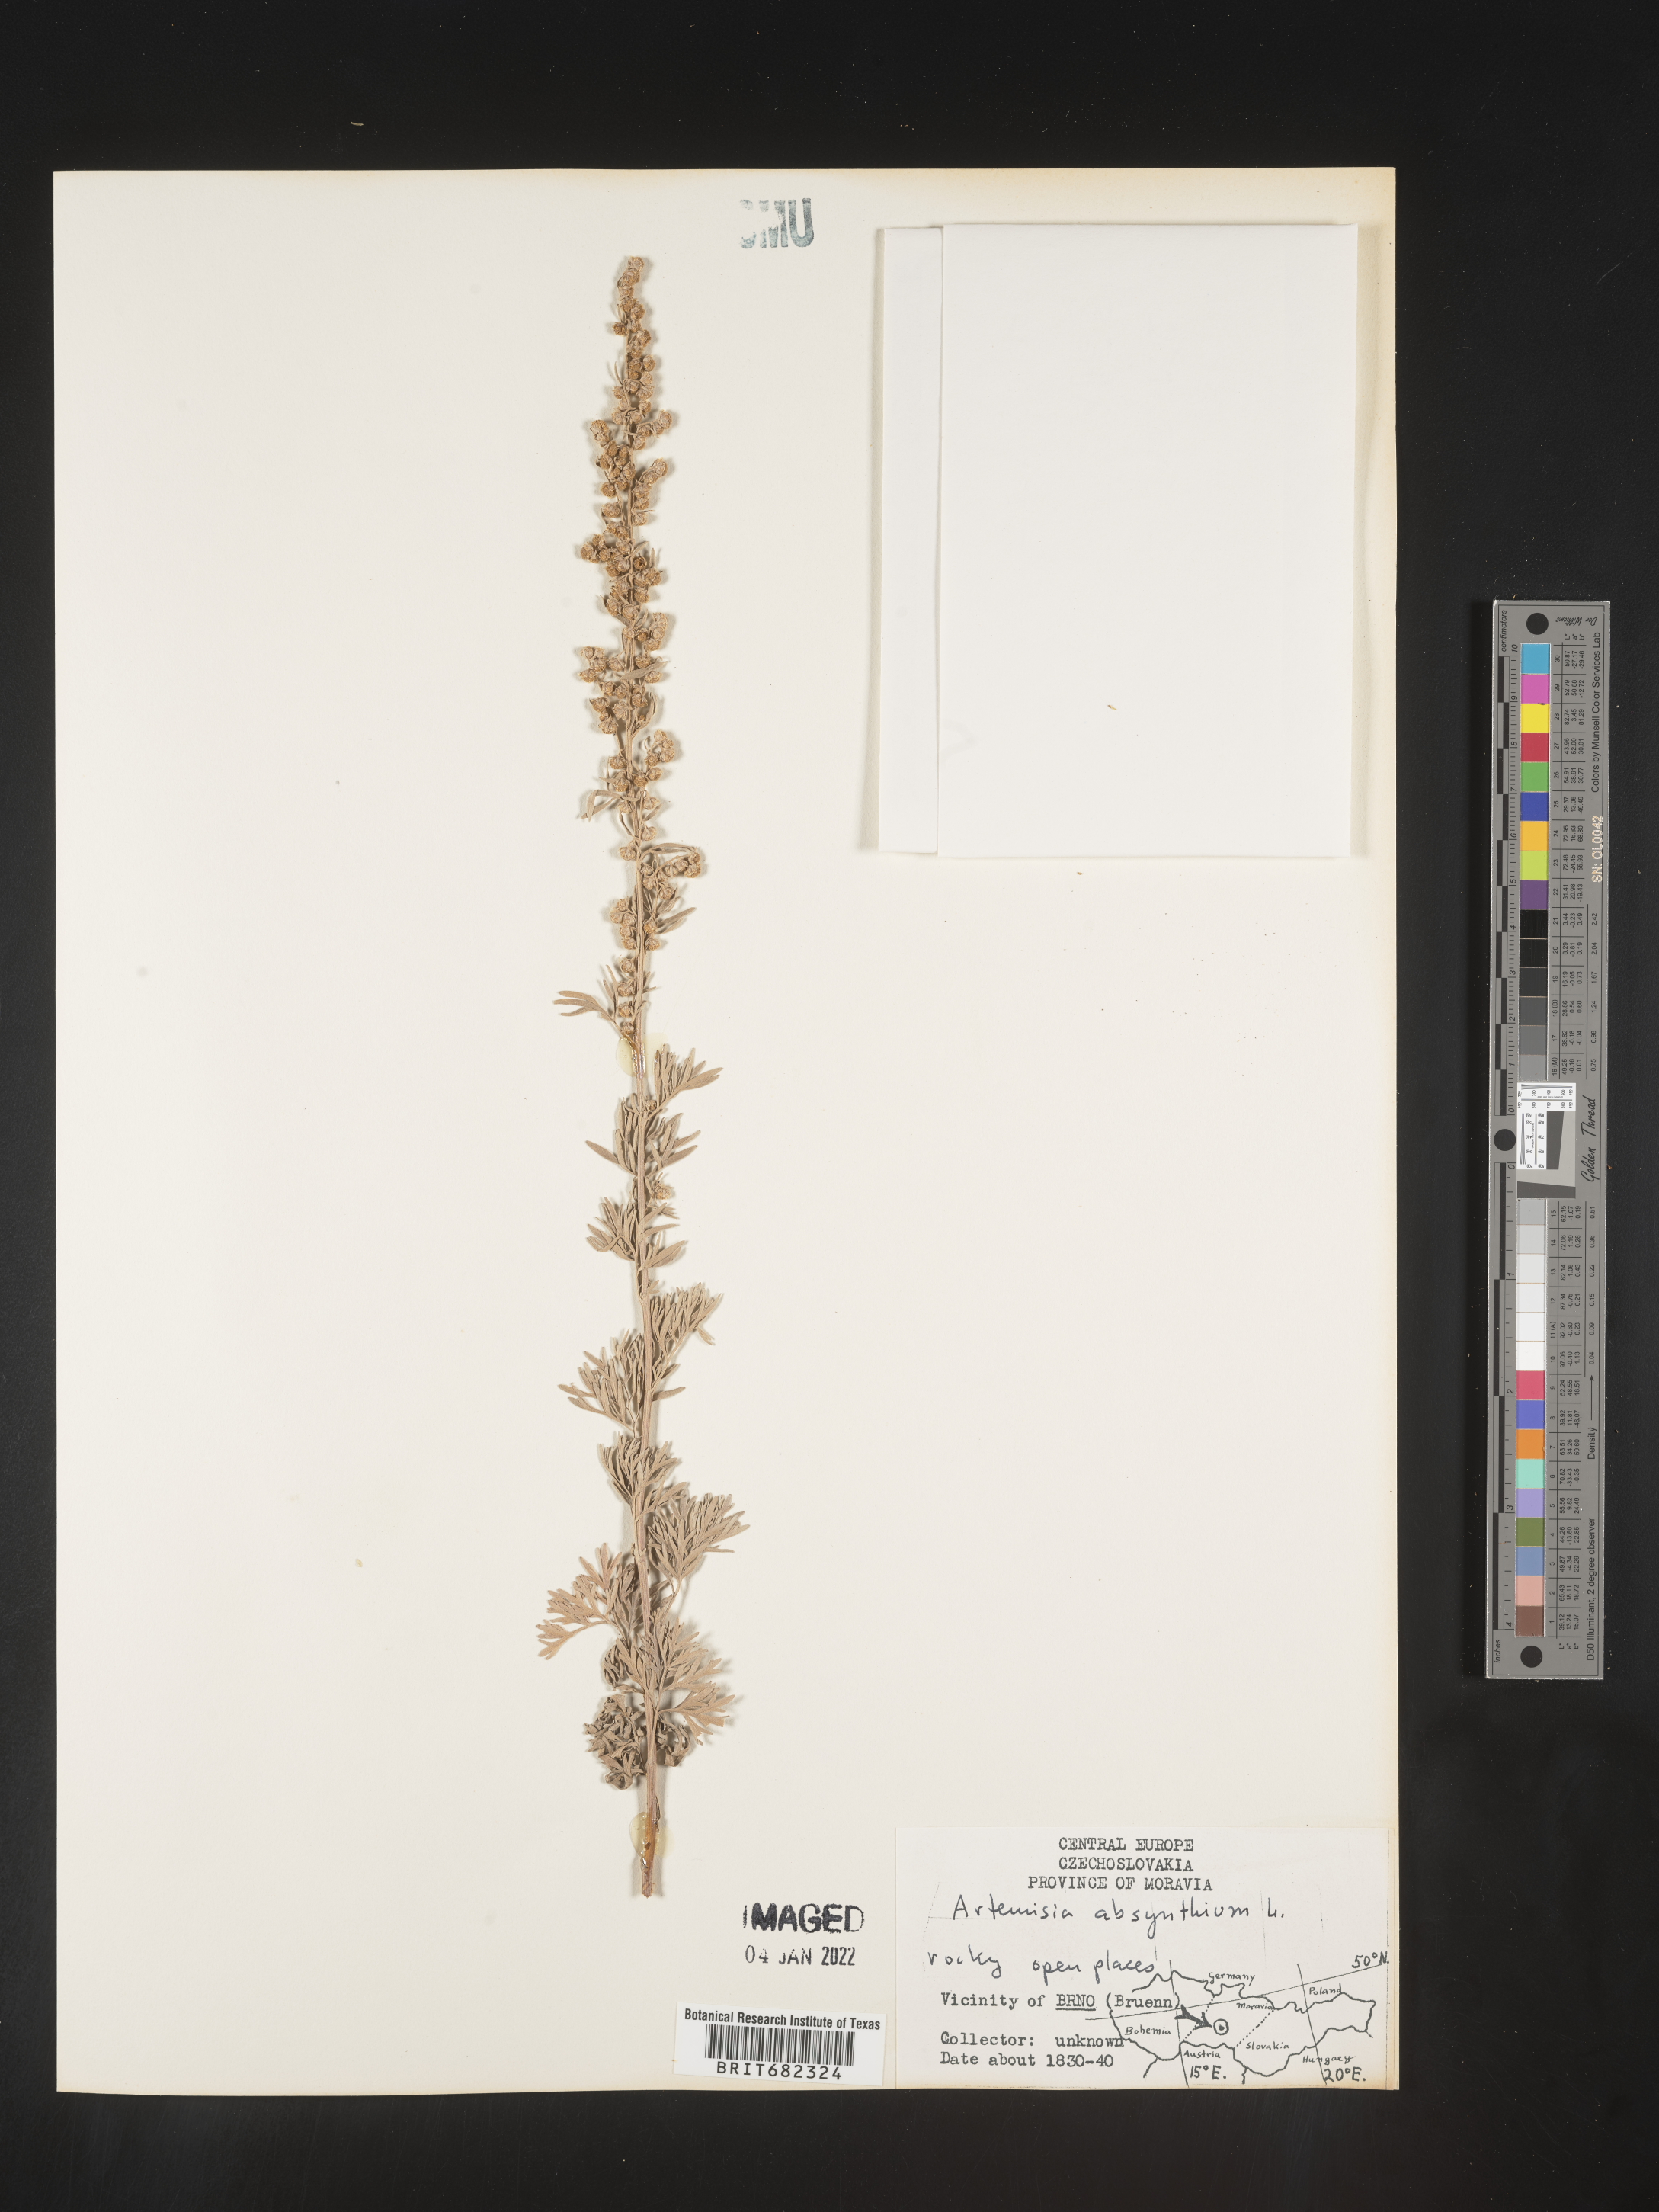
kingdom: Plantae
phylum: Tracheophyta
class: Magnoliopsida
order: Asterales
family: Asteraceae
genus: Artemisia
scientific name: Artemisia
